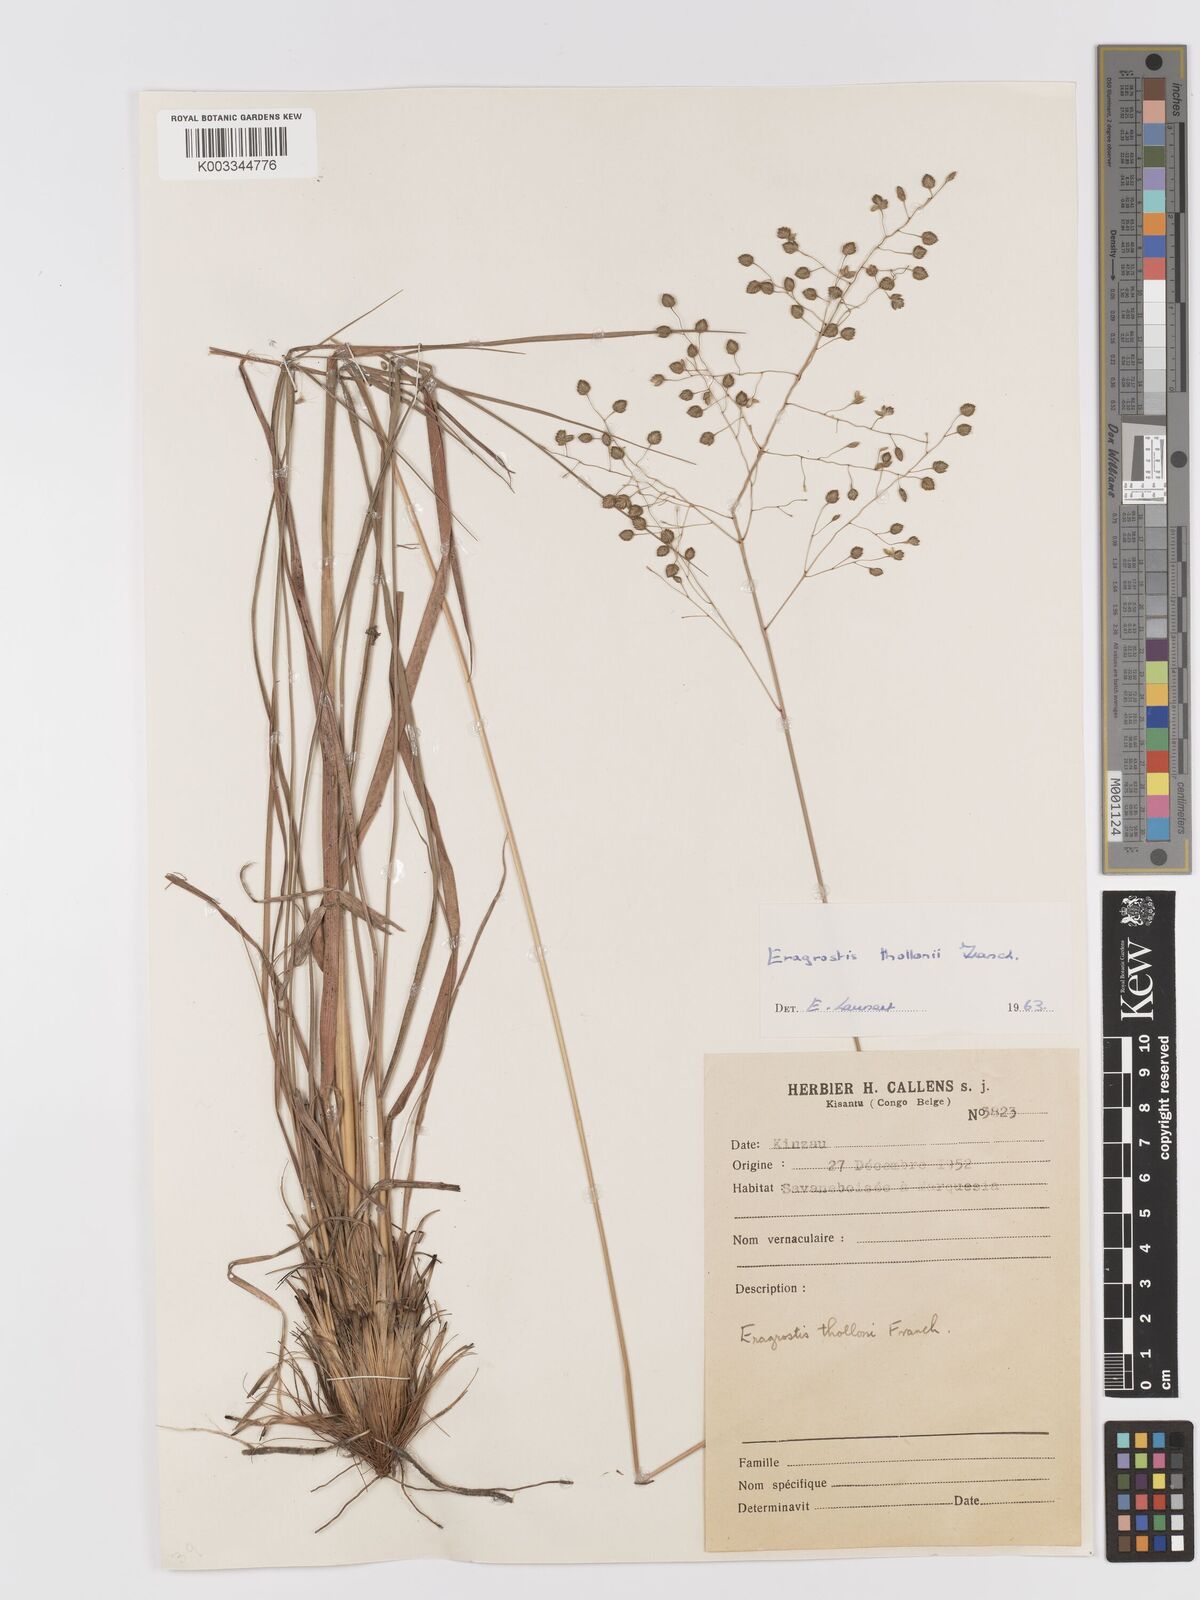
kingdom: Plantae
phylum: Tracheophyta
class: Liliopsida
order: Poales
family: Poaceae
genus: Eragrostis
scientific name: Eragrostis thollonii
